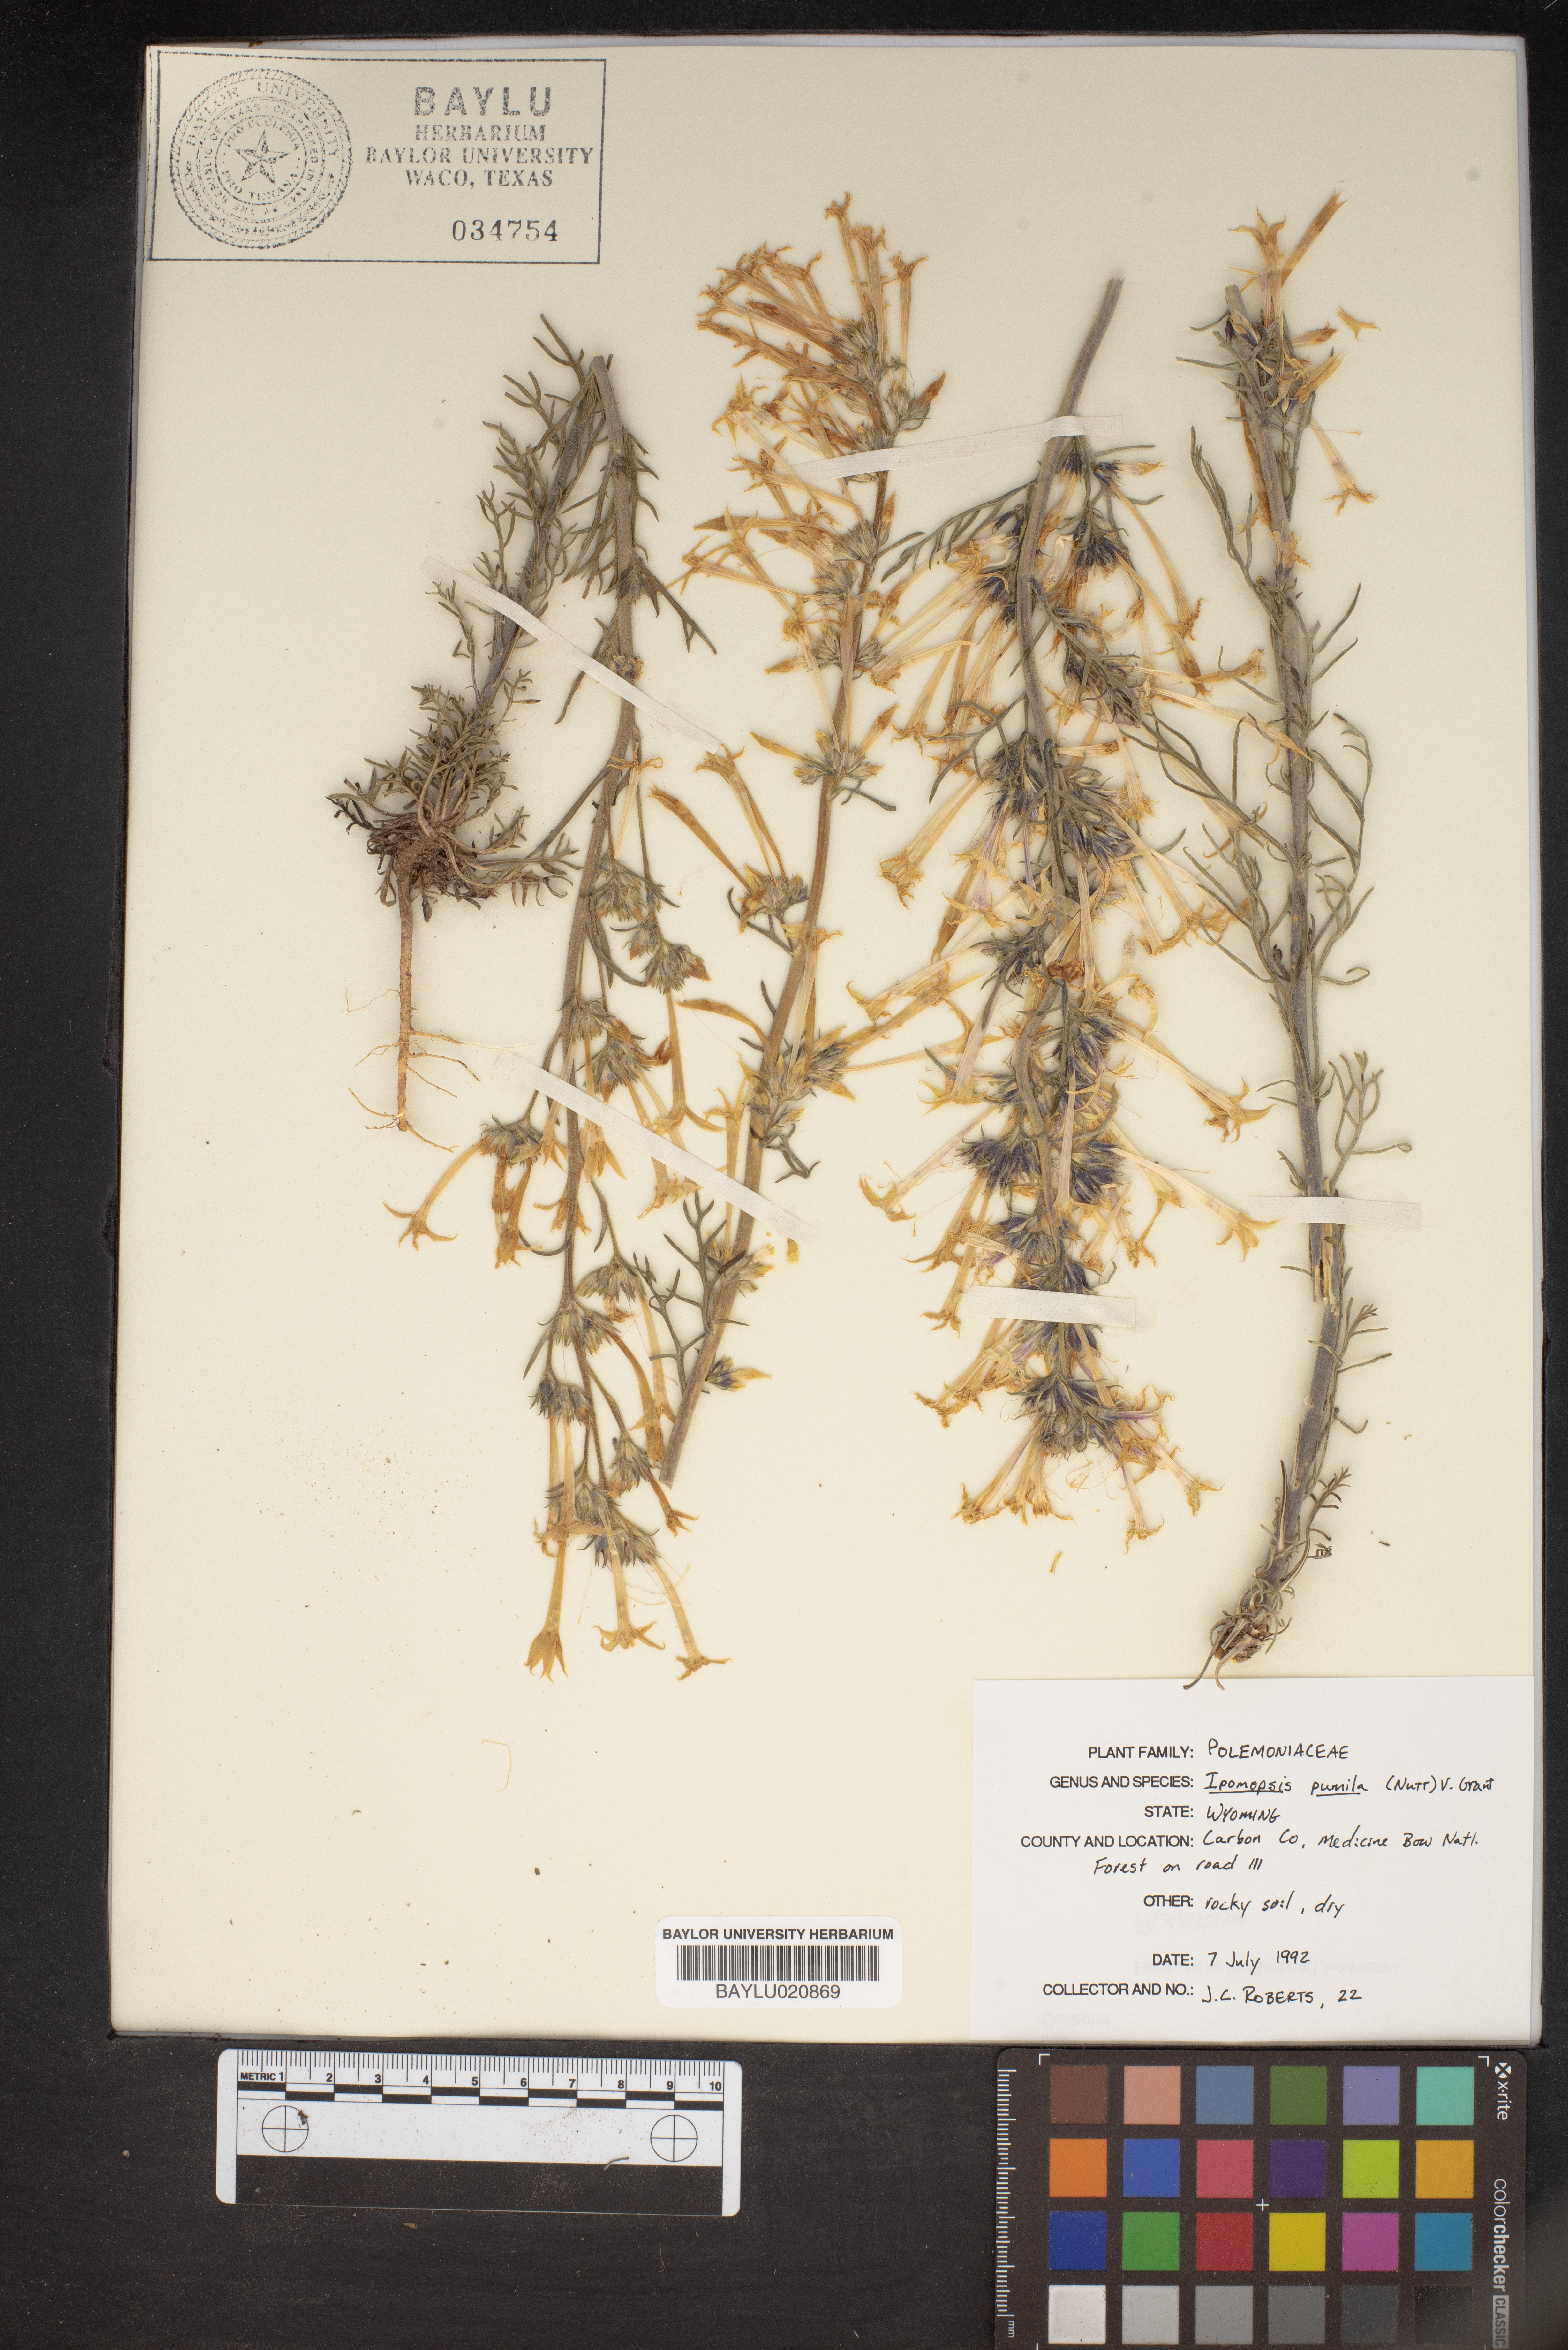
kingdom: Plantae
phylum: Tracheophyta
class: Magnoliopsida
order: Ericales
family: Polemoniaceae
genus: Ipomopsis
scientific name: Ipomopsis pumila
